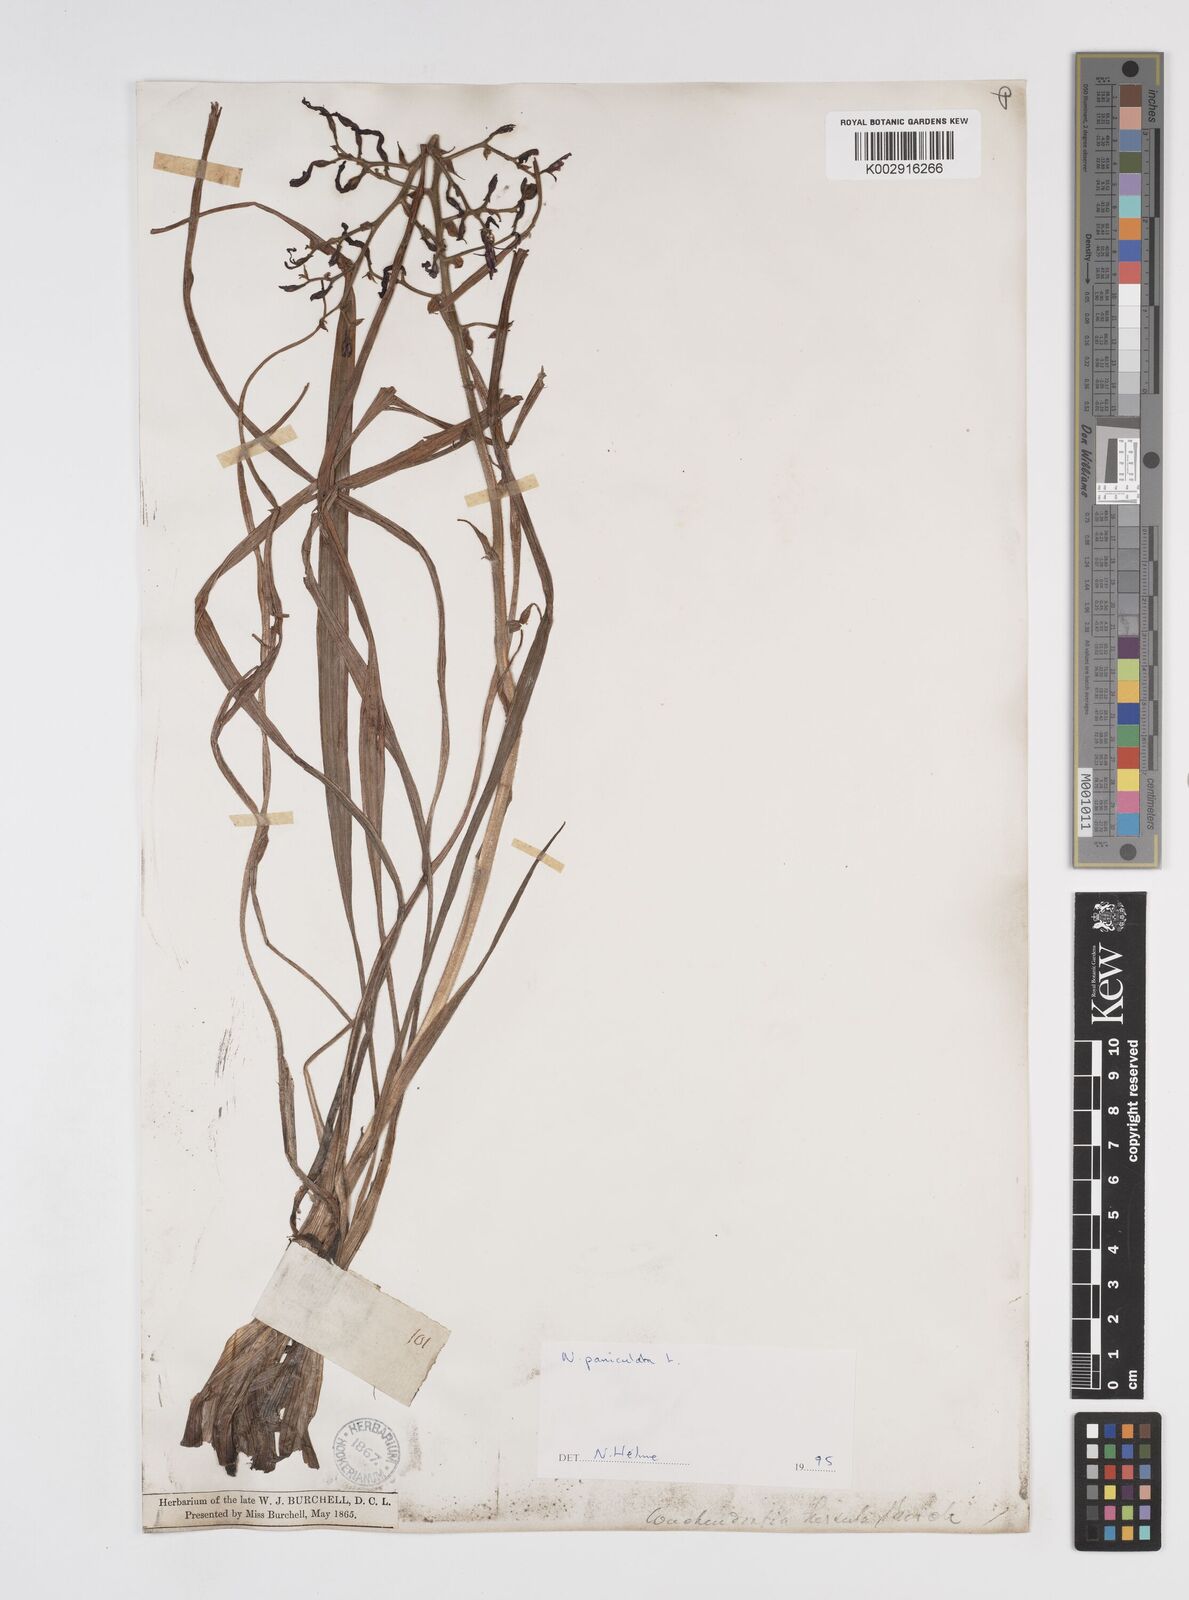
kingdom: Plantae
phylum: Tracheophyta
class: Liliopsida
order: Commelinales
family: Haemodoraceae
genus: Wachendorfia
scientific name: Wachendorfia paniculata
